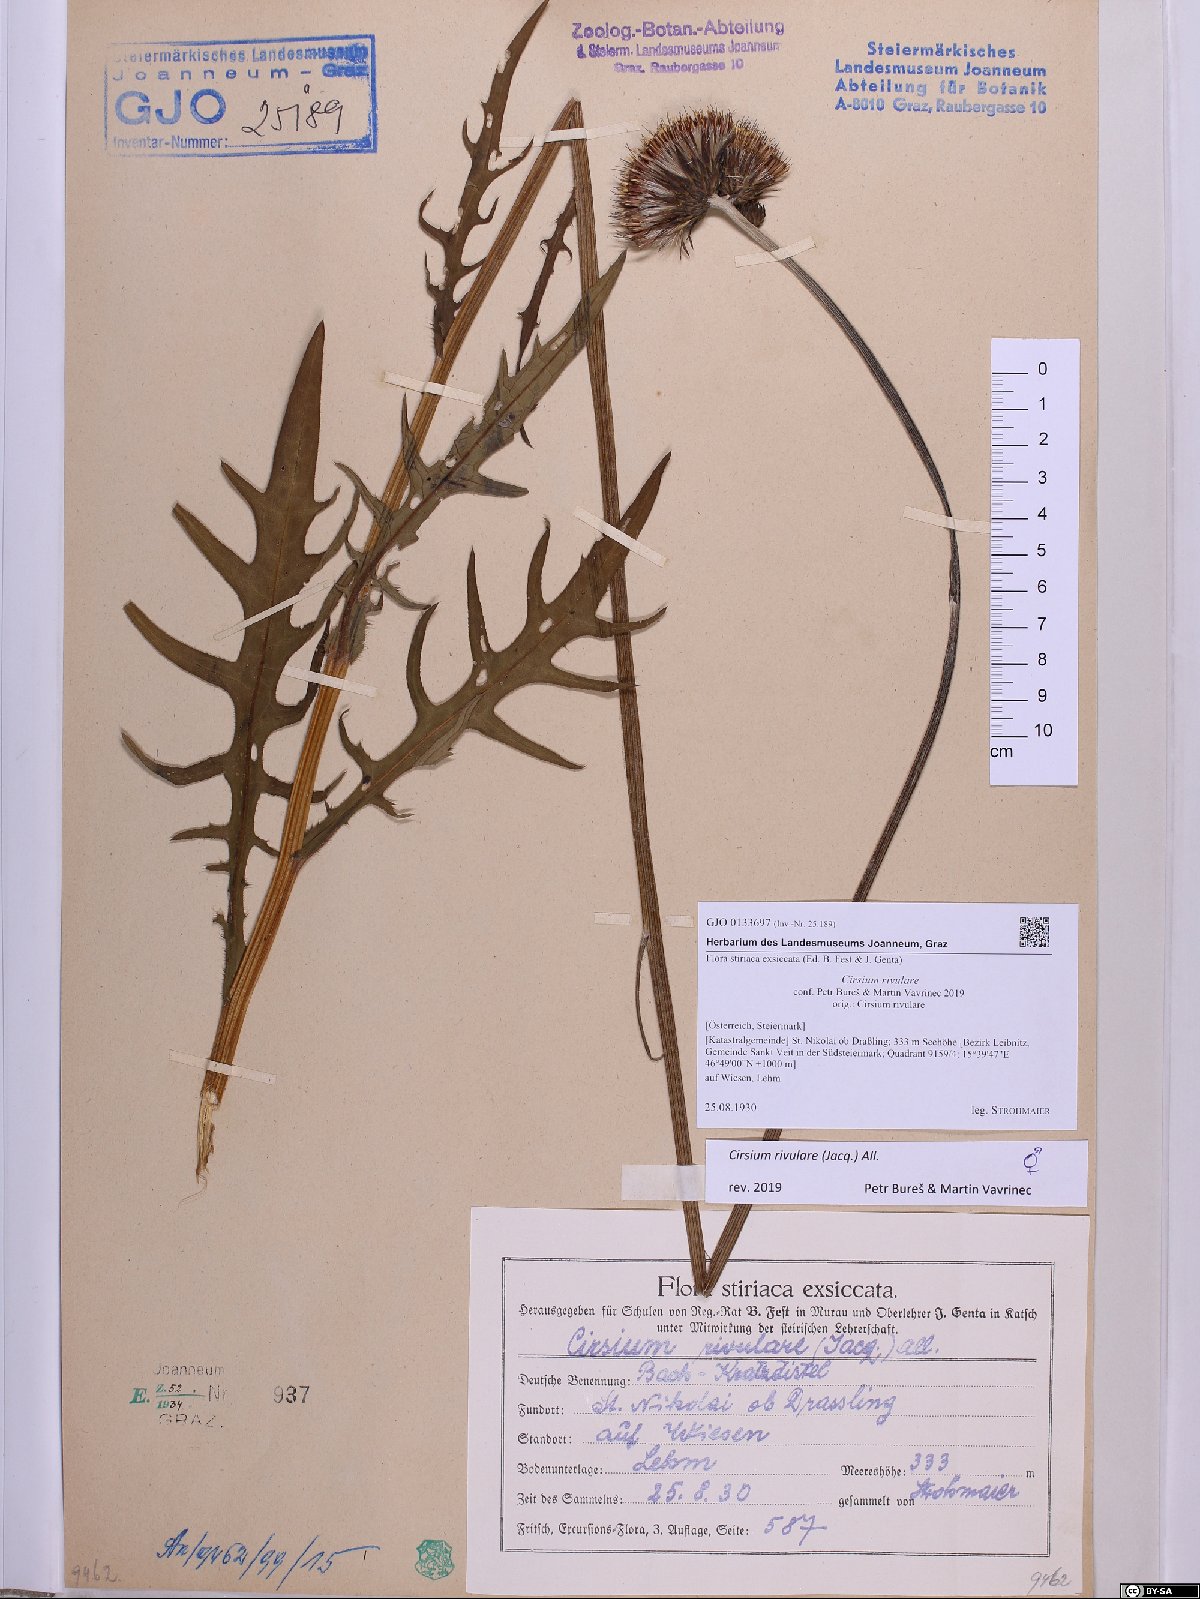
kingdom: Plantae
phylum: Tracheophyta
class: Magnoliopsida
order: Asterales
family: Asteraceae
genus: Cirsium
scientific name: Cirsium rivulare
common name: Brook thistle
